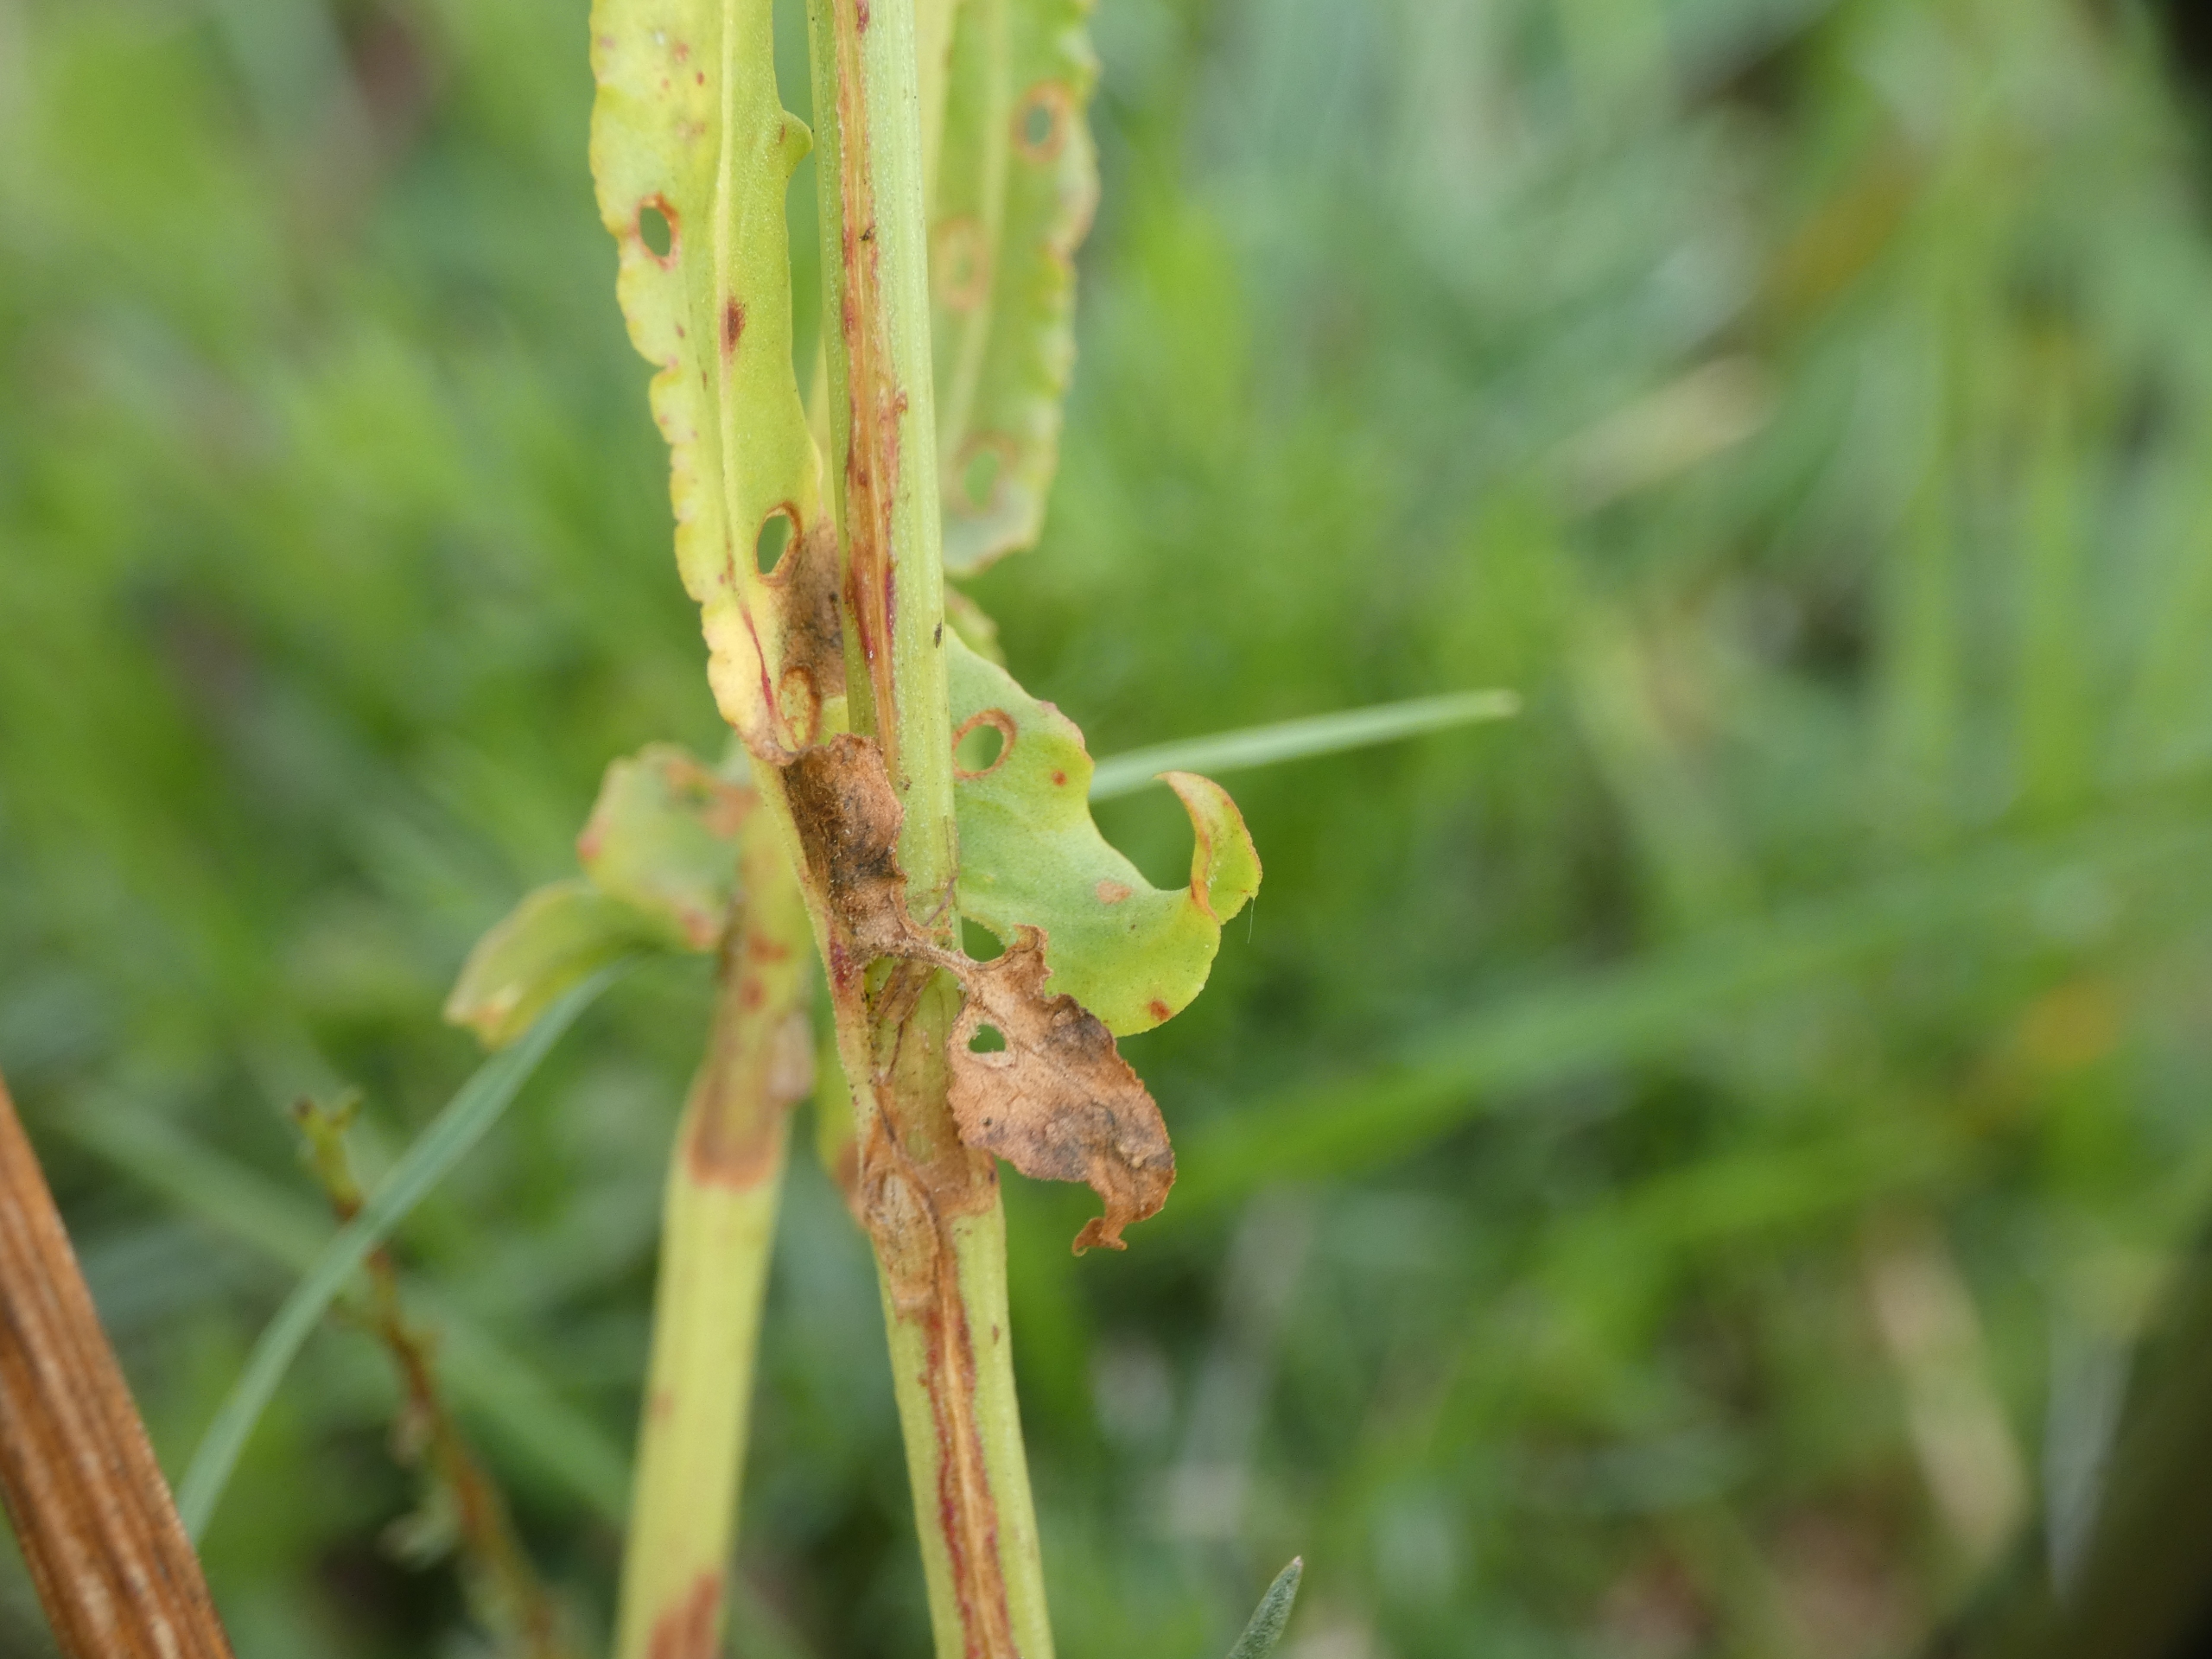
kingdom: Plantae
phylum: Tracheophyta
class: Magnoliopsida
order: Caryophyllales
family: Polygonaceae
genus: Rumex
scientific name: Rumex acetosa
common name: Almindelig syre
